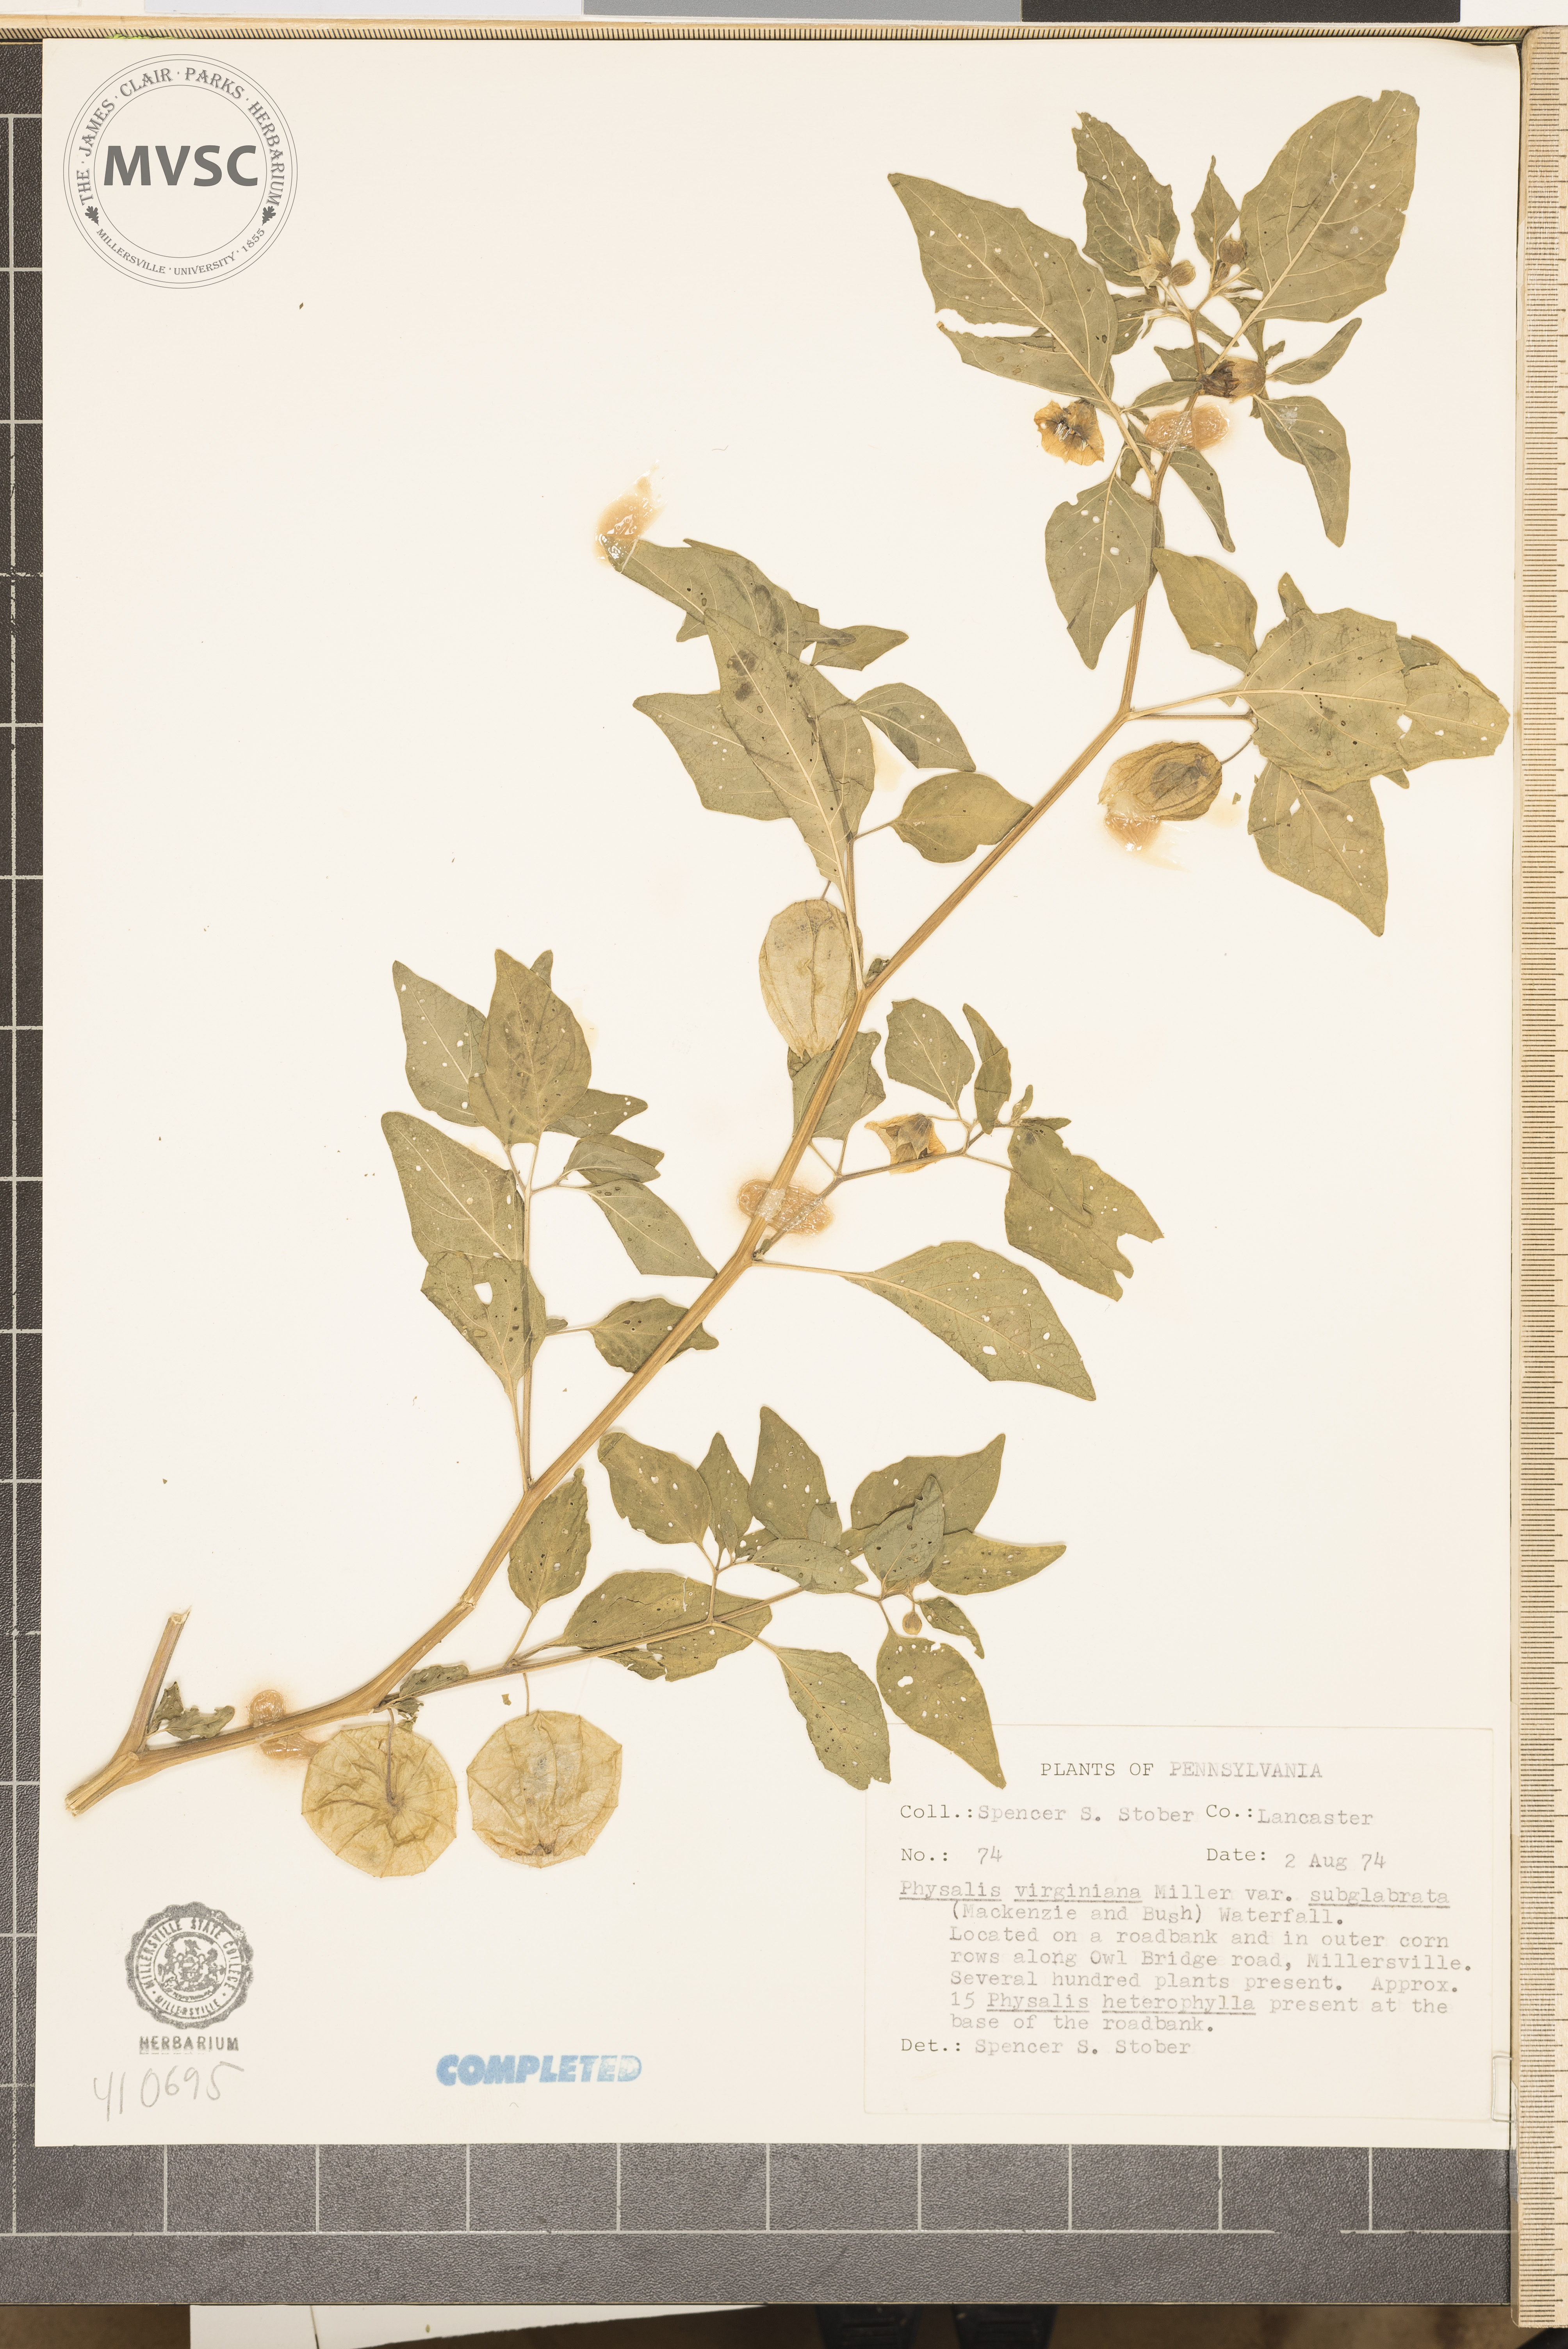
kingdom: Plantae
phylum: Tracheophyta
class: Magnoliopsida
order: Solanales
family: Solanaceae
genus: Physalis
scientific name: Physalis virginiana
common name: Virginia ground-cherry
